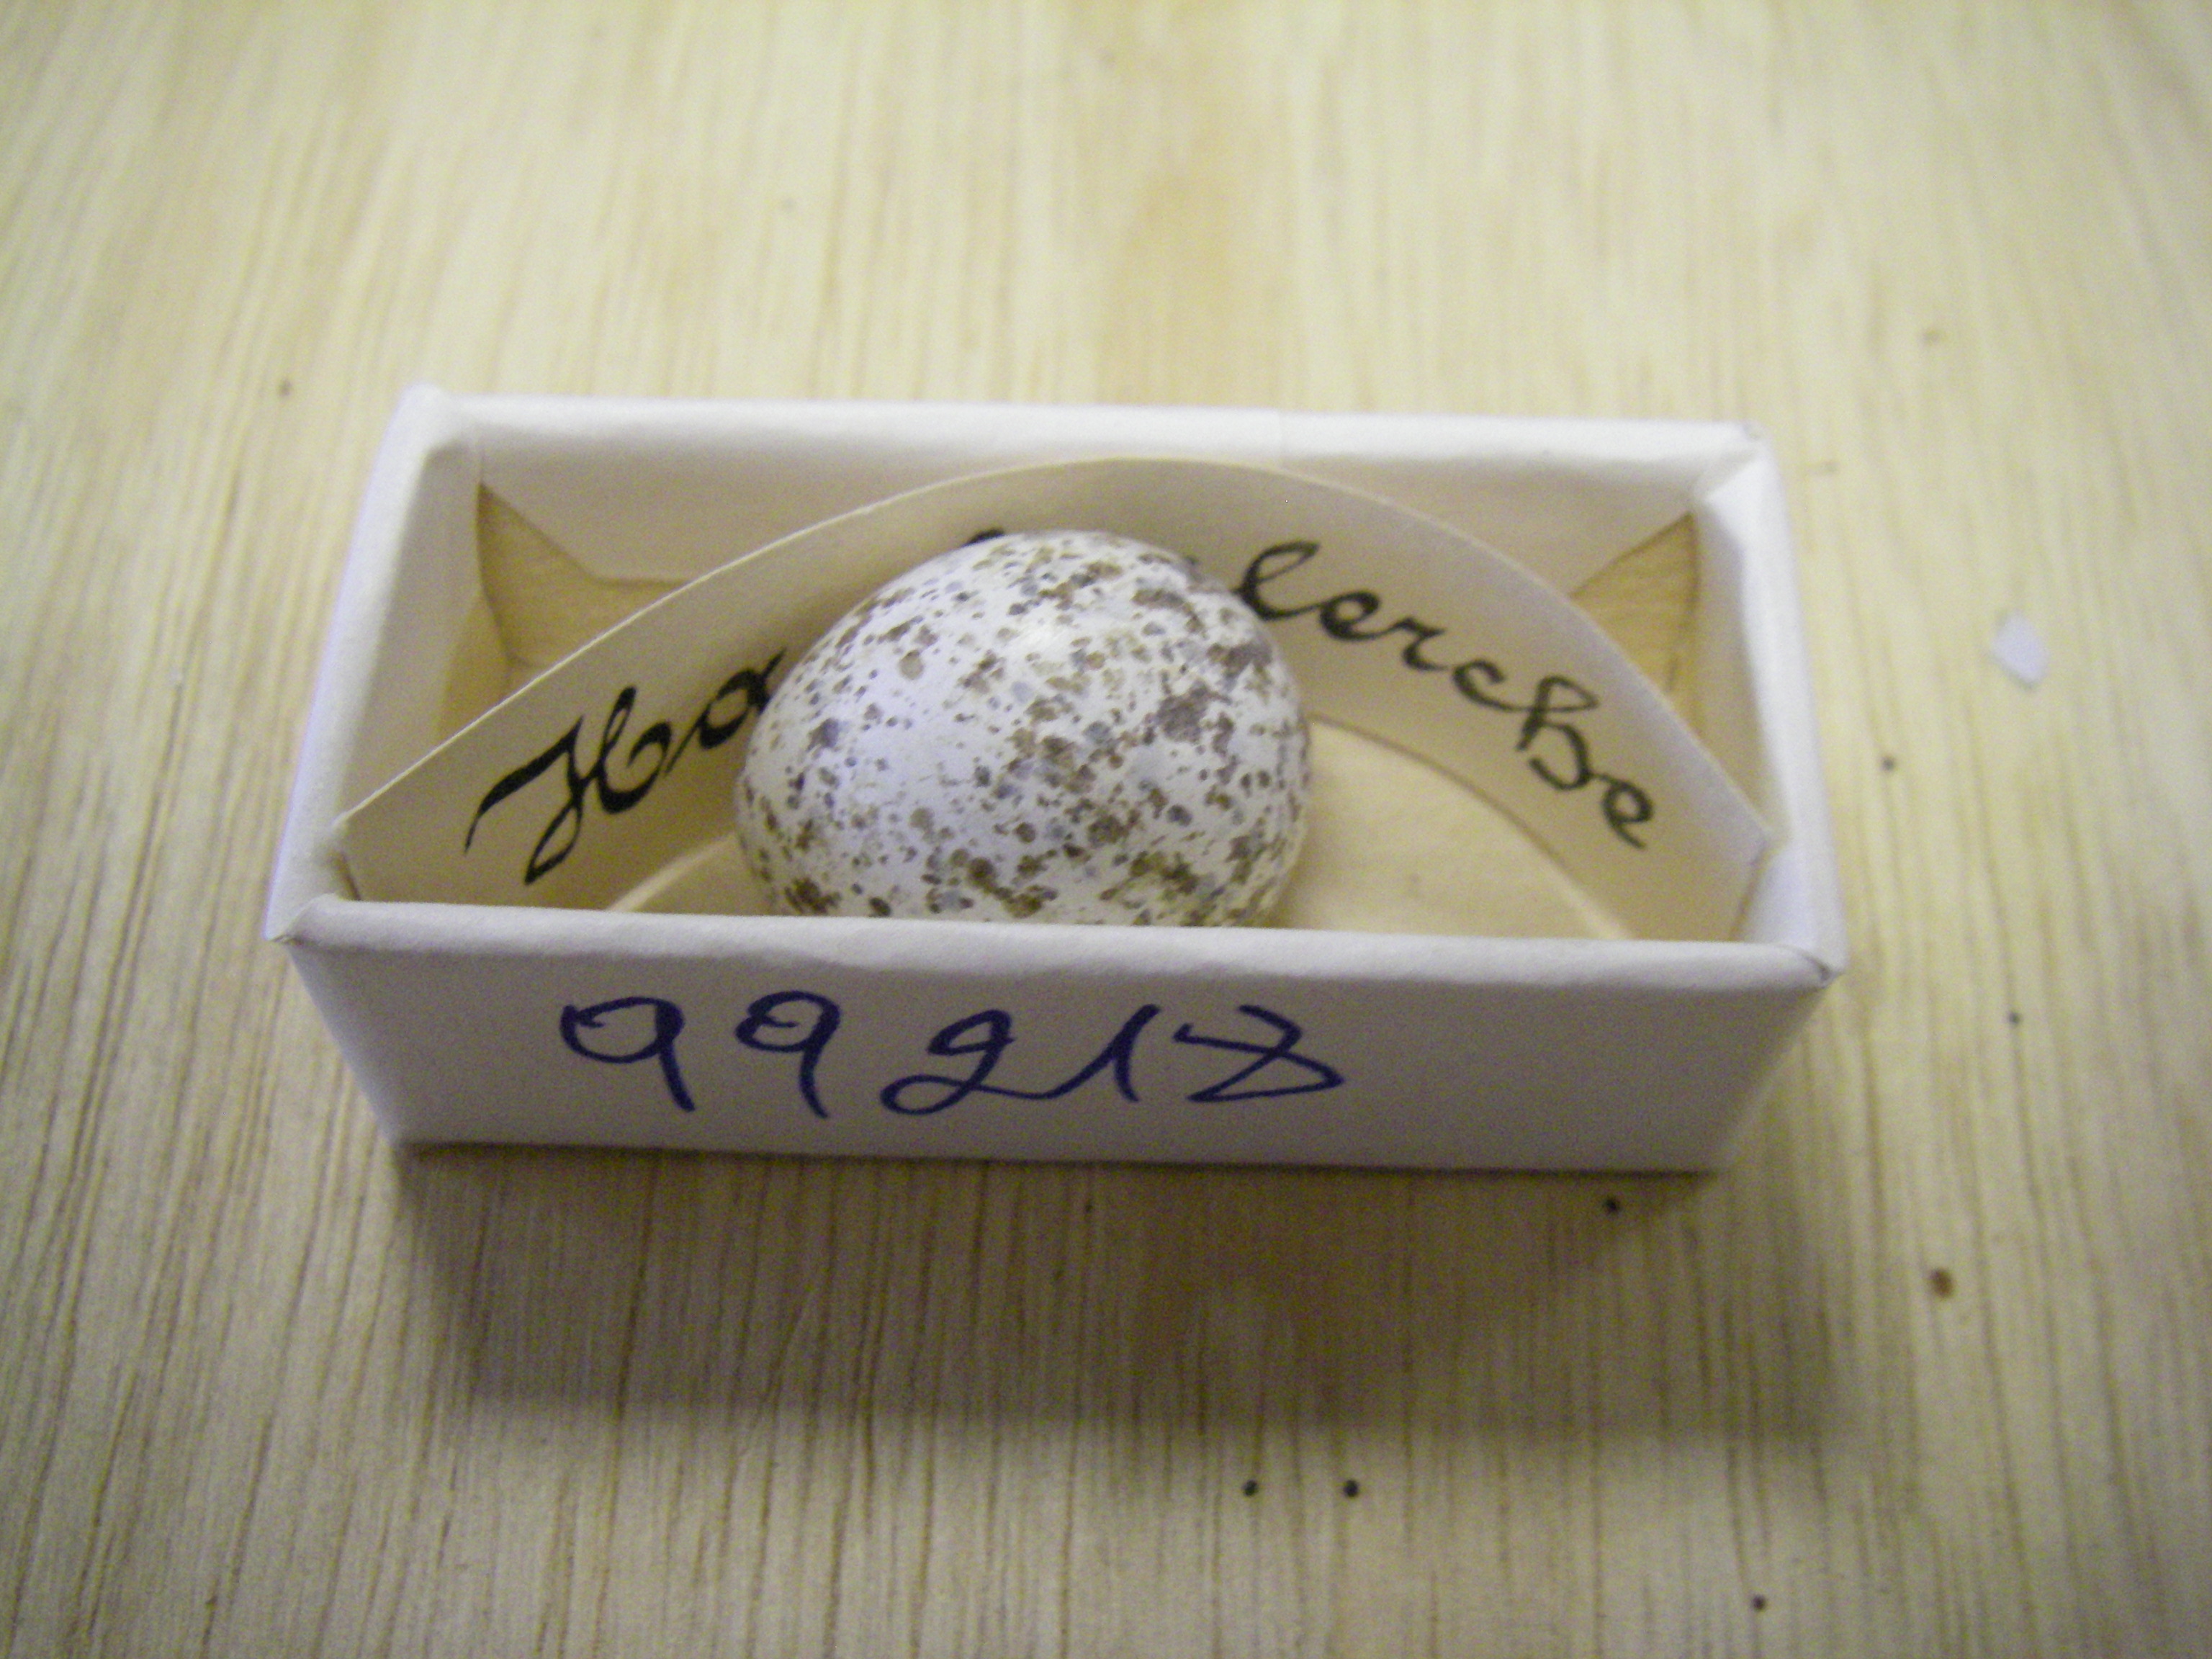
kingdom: Animalia
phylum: Chordata
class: Aves
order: Passeriformes
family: Alaudidae
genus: Galerida
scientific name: Galerida cristata
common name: Crested lark
